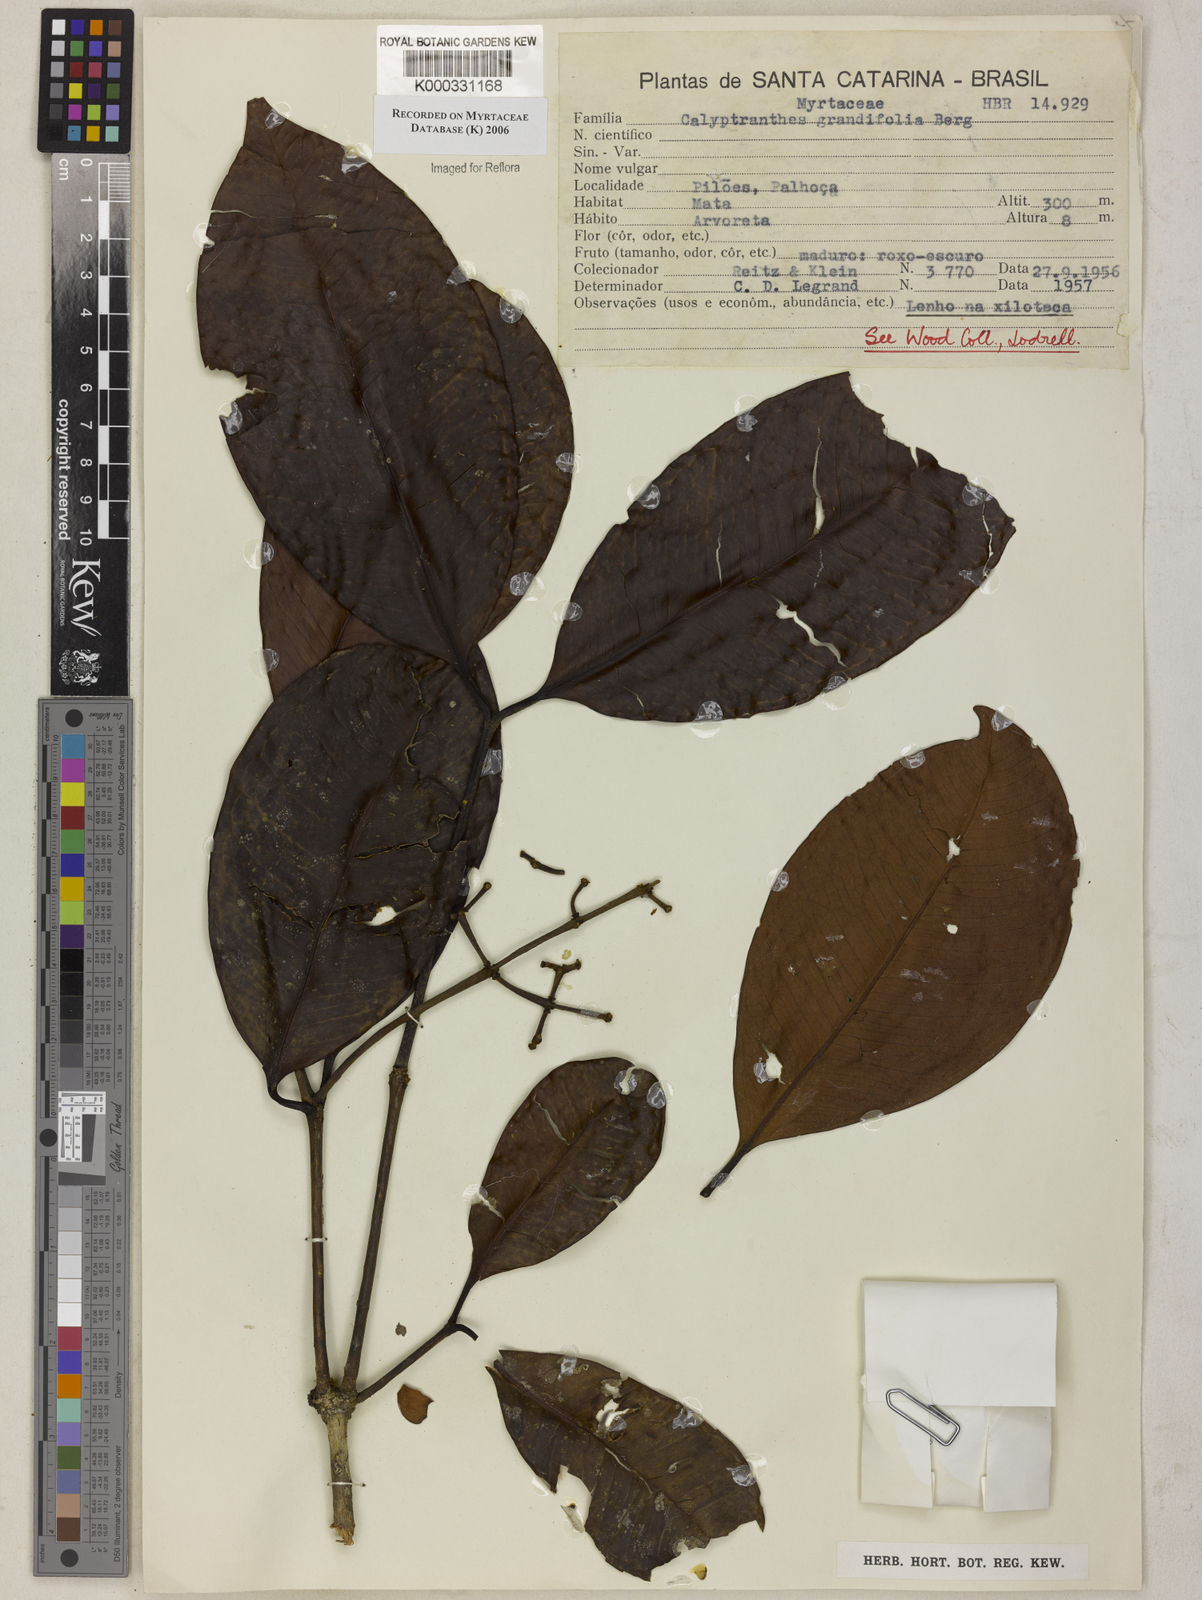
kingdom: Plantae
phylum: Tracheophyta
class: Magnoliopsida
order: Myrtales
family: Myrtaceae
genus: Calyptranthes
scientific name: Calyptranthes grandifolia
